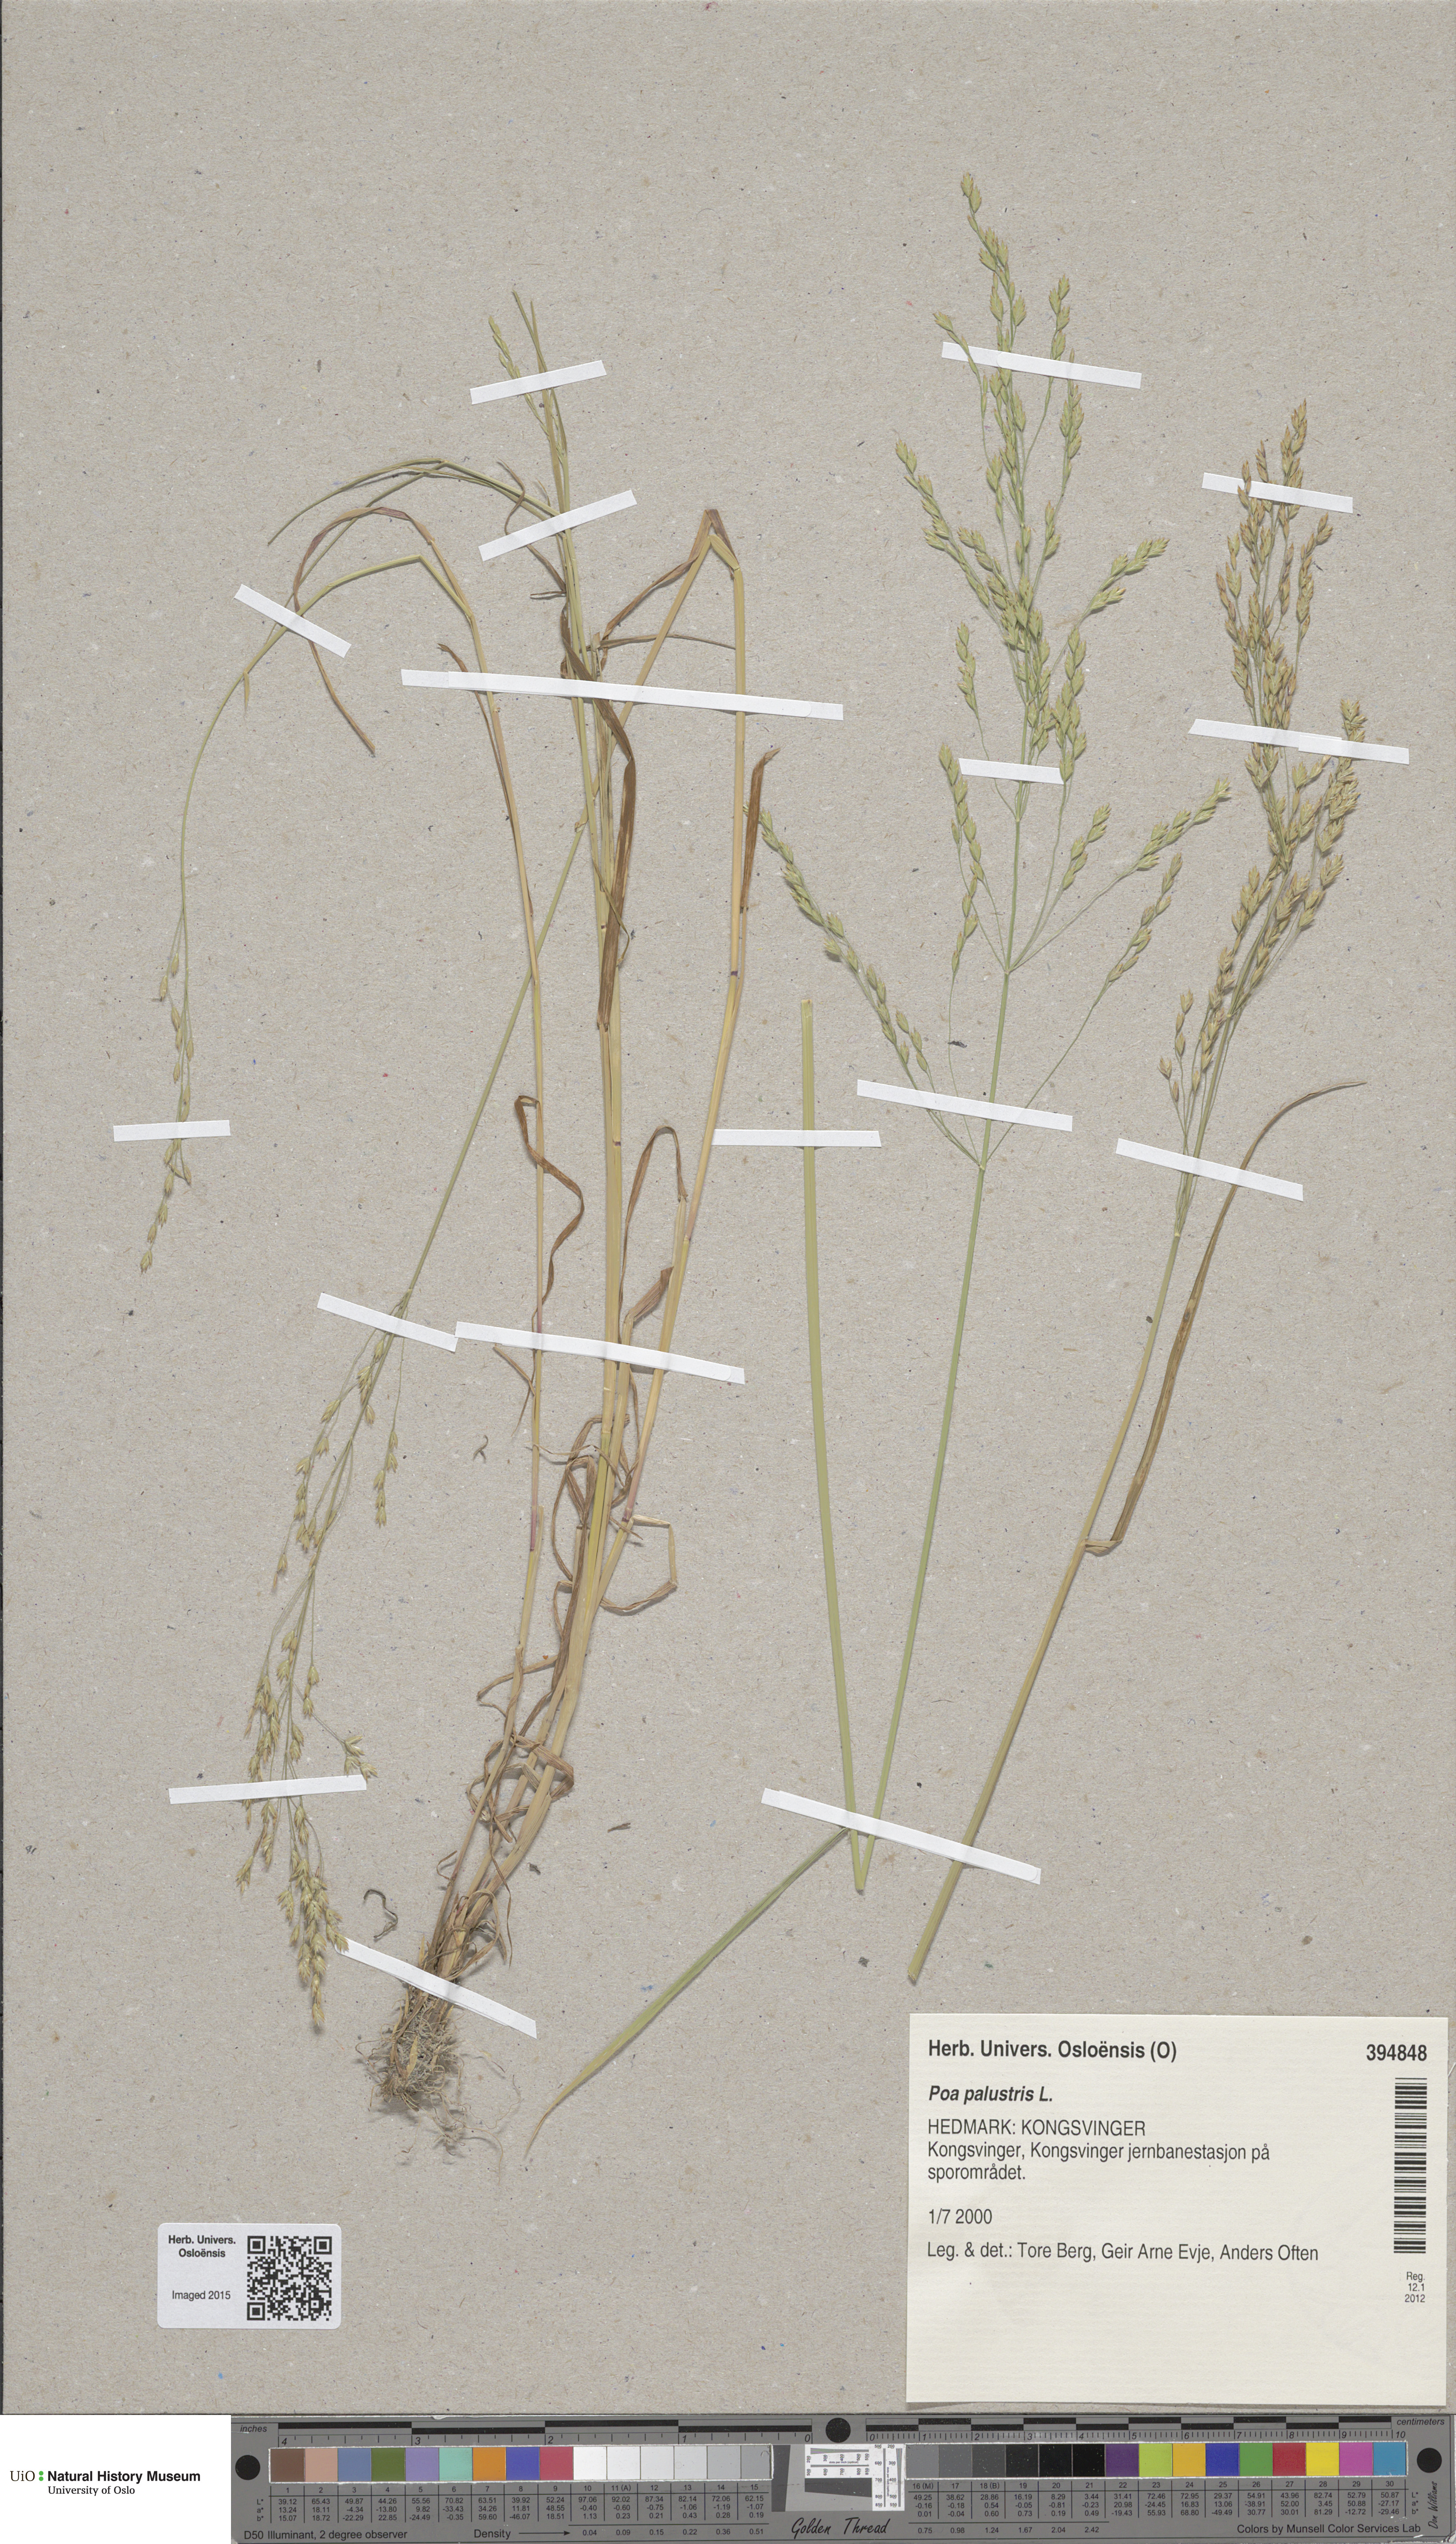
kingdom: Plantae
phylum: Tracheophyta
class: Liliopsida
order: Poales
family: Poaceae
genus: Poa
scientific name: Poa palustris
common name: Swamp meadow-grass
